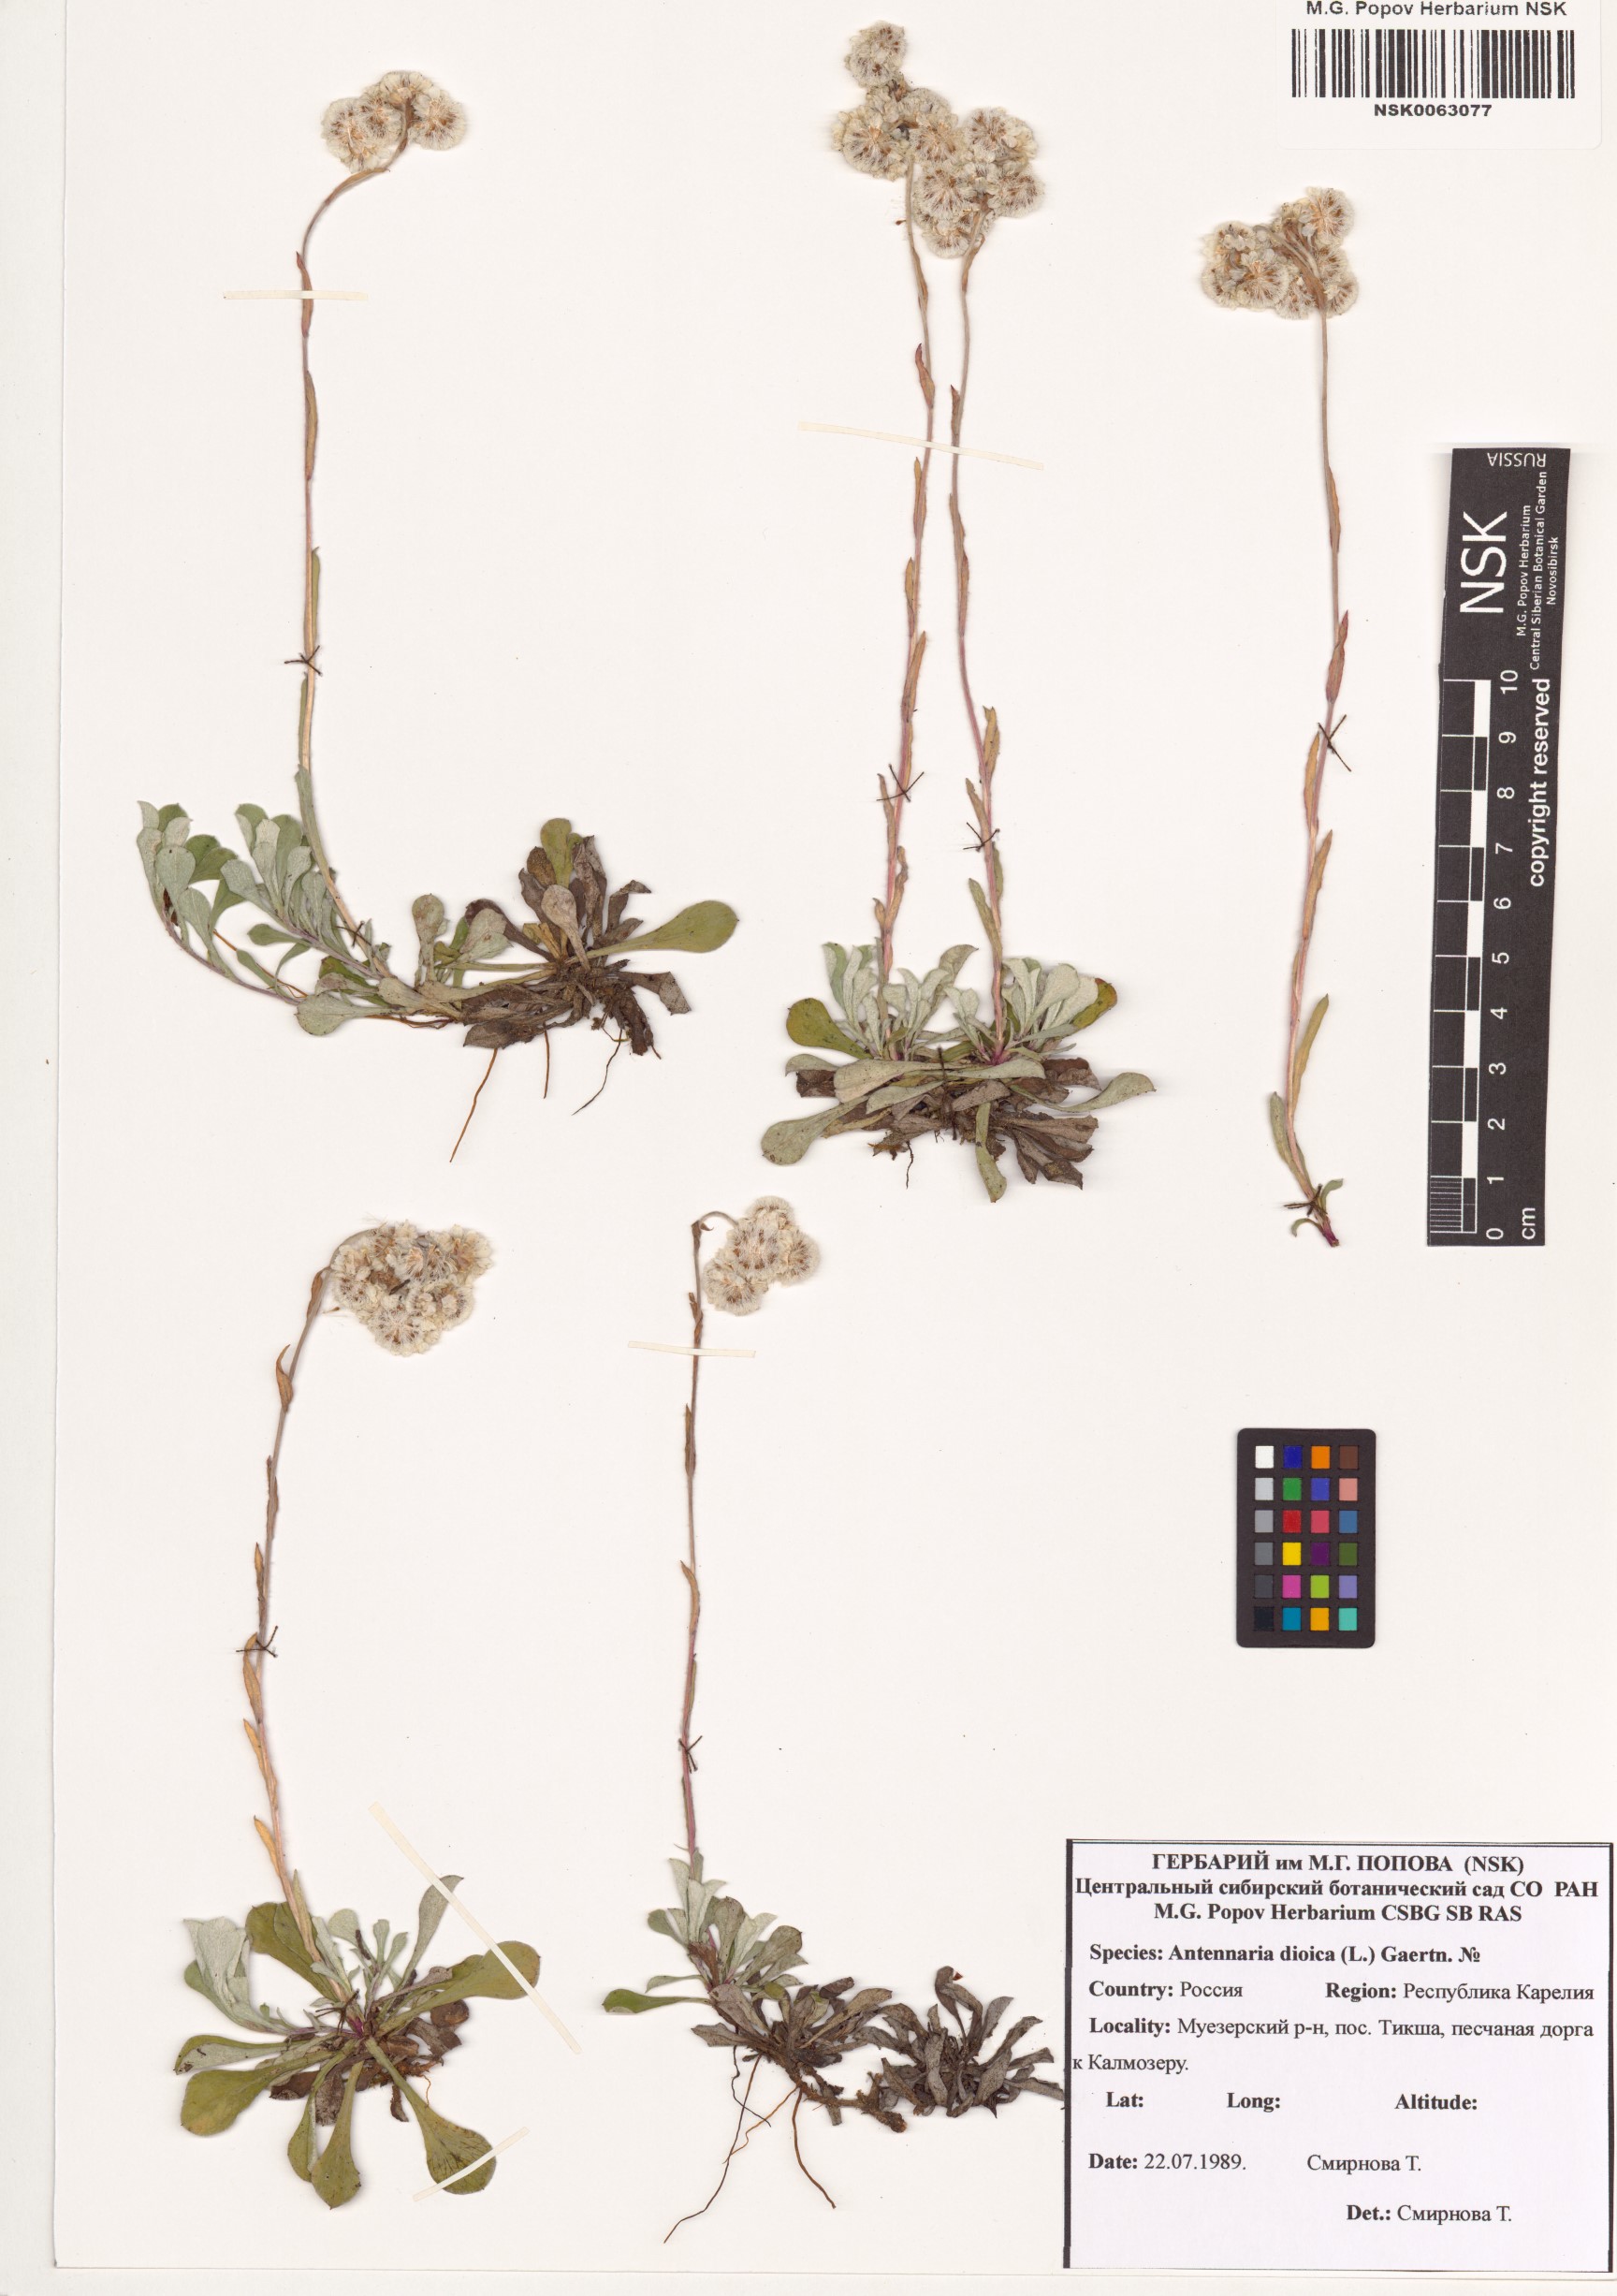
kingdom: Plantae
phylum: Tracheophyta
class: Magnoliopsida
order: Asterales
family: Asteraceae
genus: Antennaria
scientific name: Antennaria dioica
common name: Mountain everlasting
